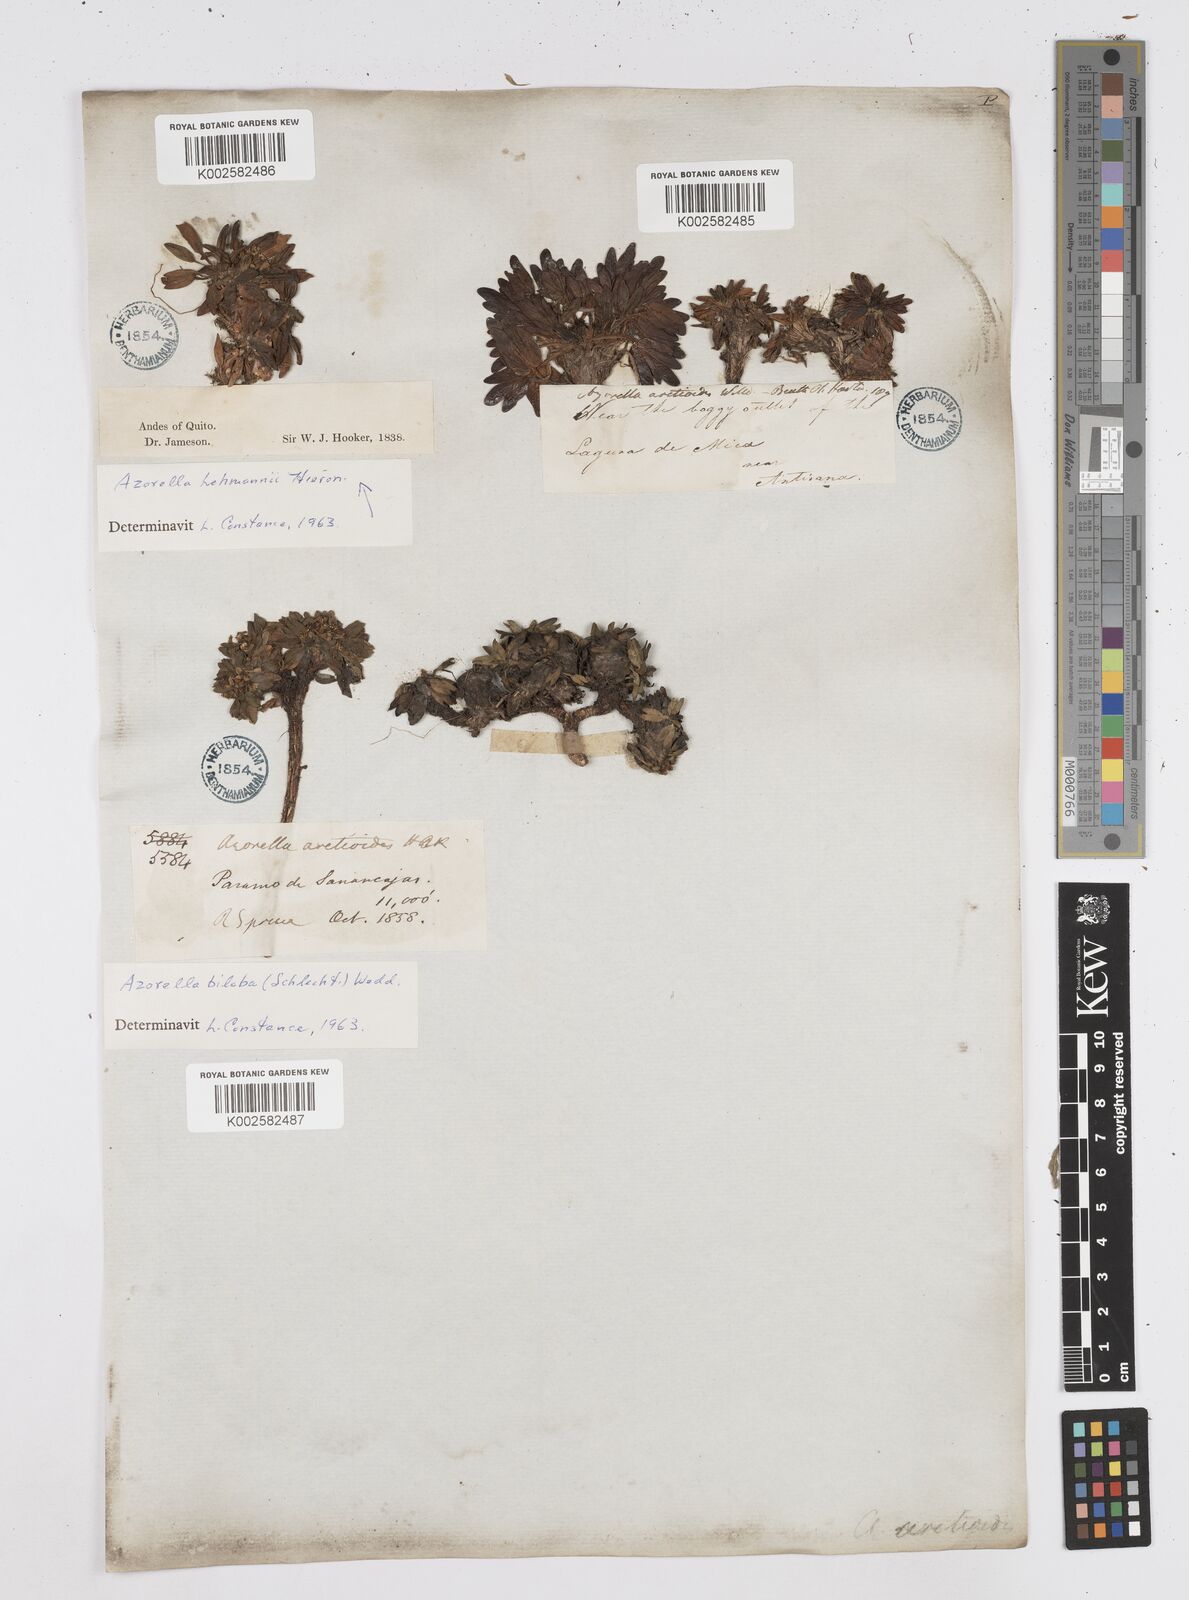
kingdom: Plantae
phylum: Tracheophyta
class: Magnoliopsida
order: Apiales
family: Apiaceae
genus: Azorella
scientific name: Azorella biloba
